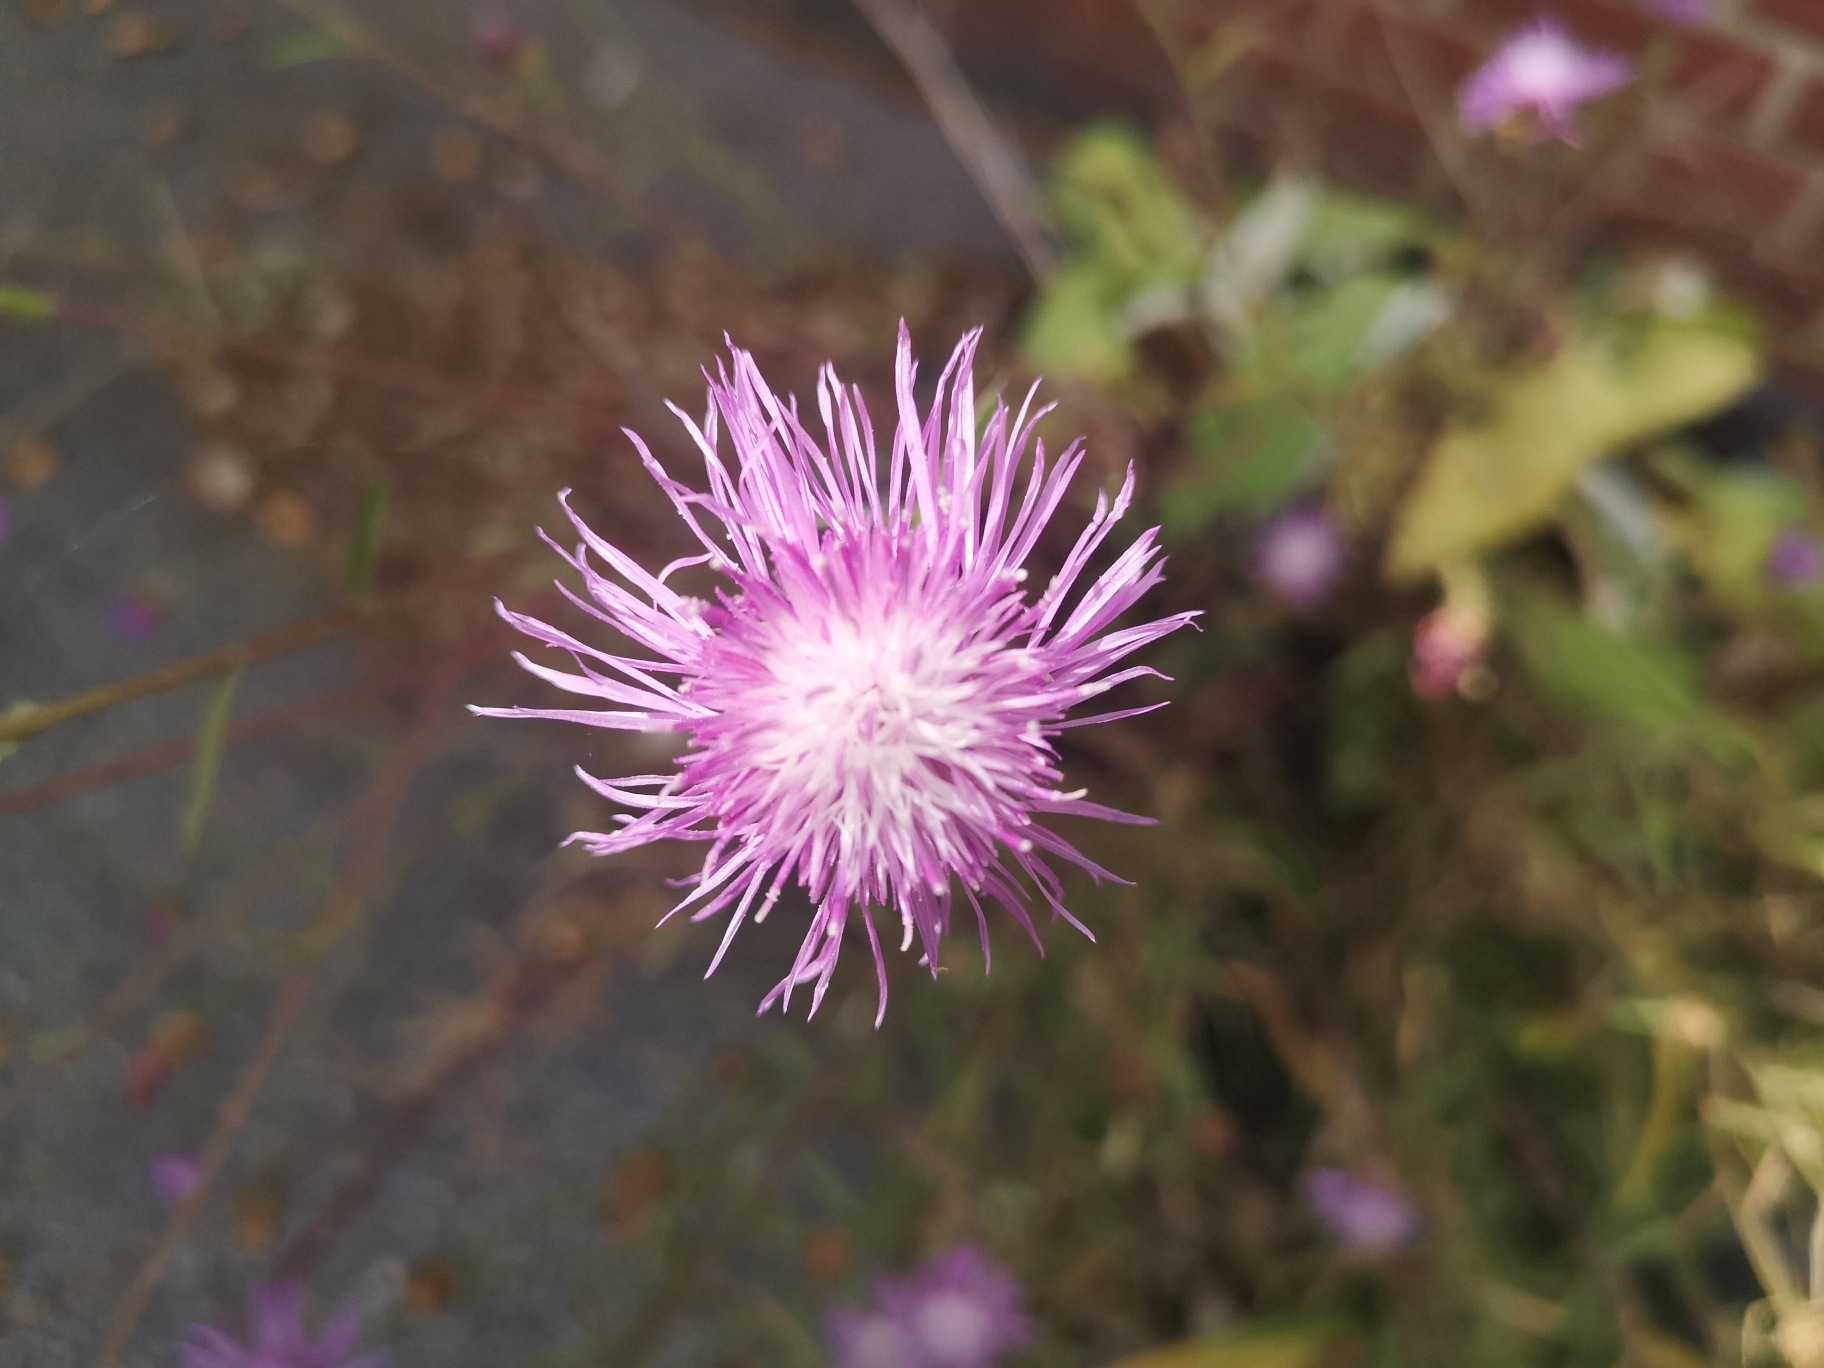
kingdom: Plantae
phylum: Tracheophyta
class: Magnoliopsida
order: Asterales
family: Asteraceae
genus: Centaurea
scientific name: Centaurea
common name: Knopurtslægten
